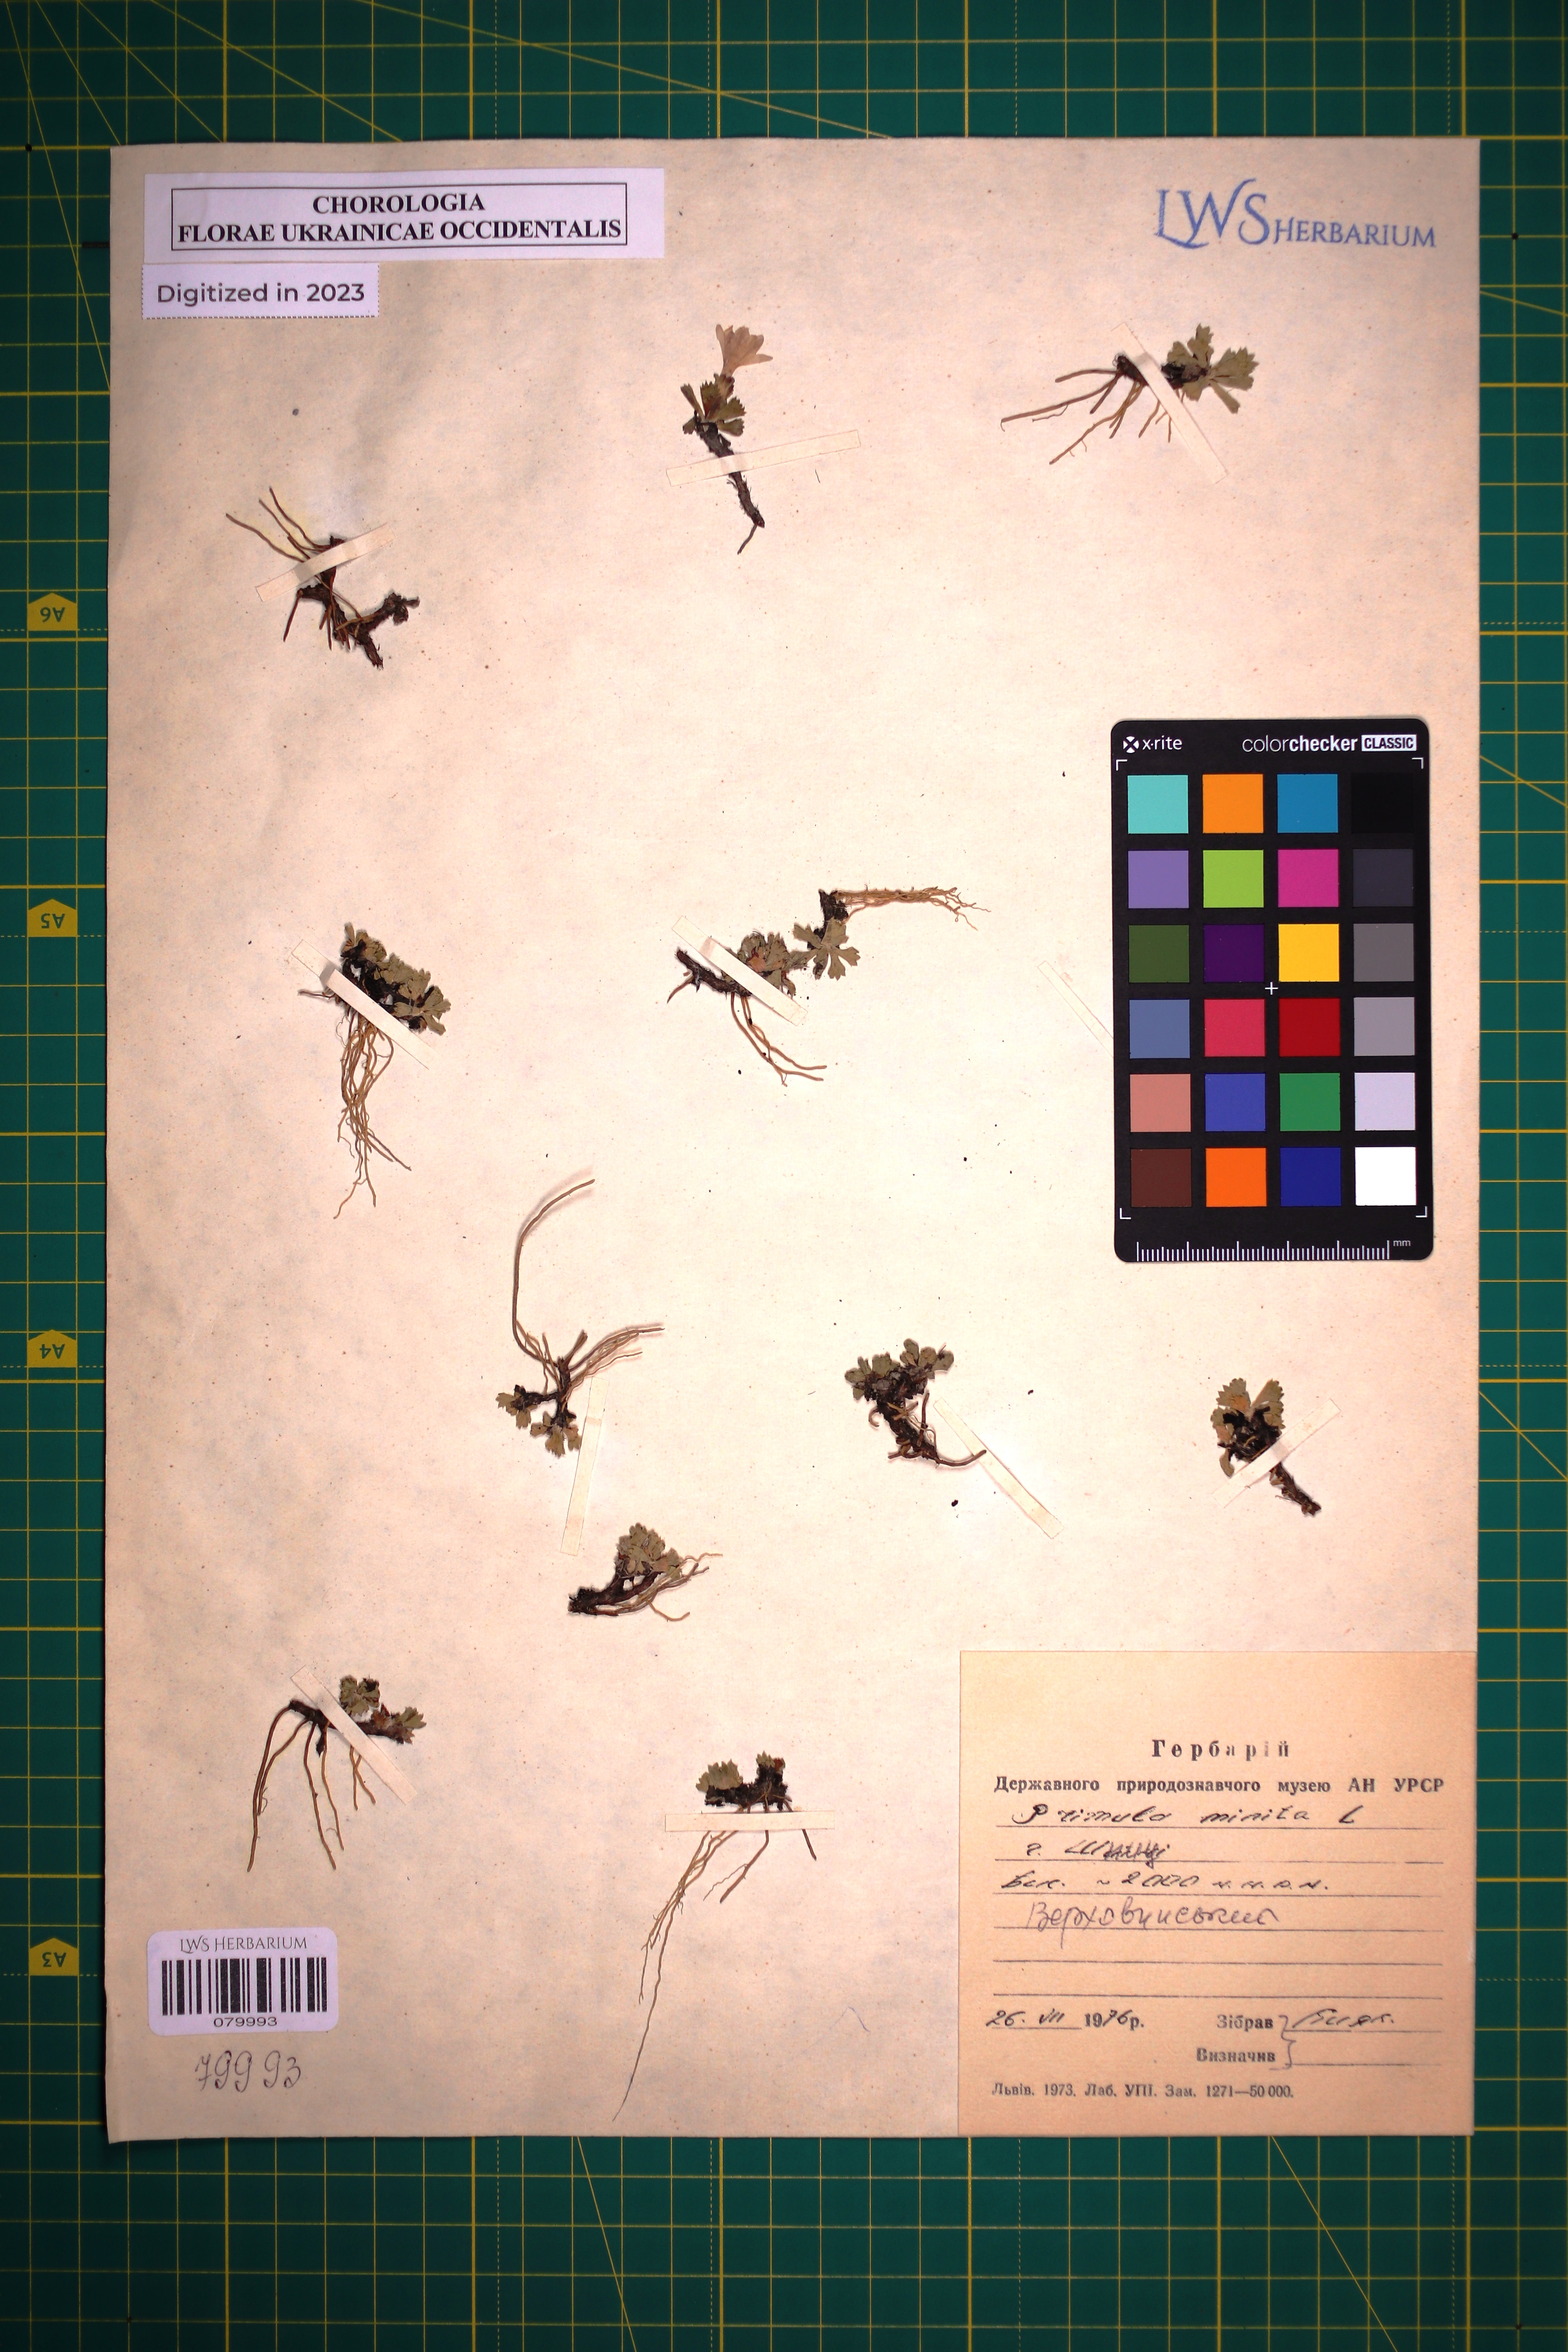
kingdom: Plantae
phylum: Tracheophyta
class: Magnoliopsida
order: Ericales
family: Primulaceae
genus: Primula
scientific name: Primula minima
